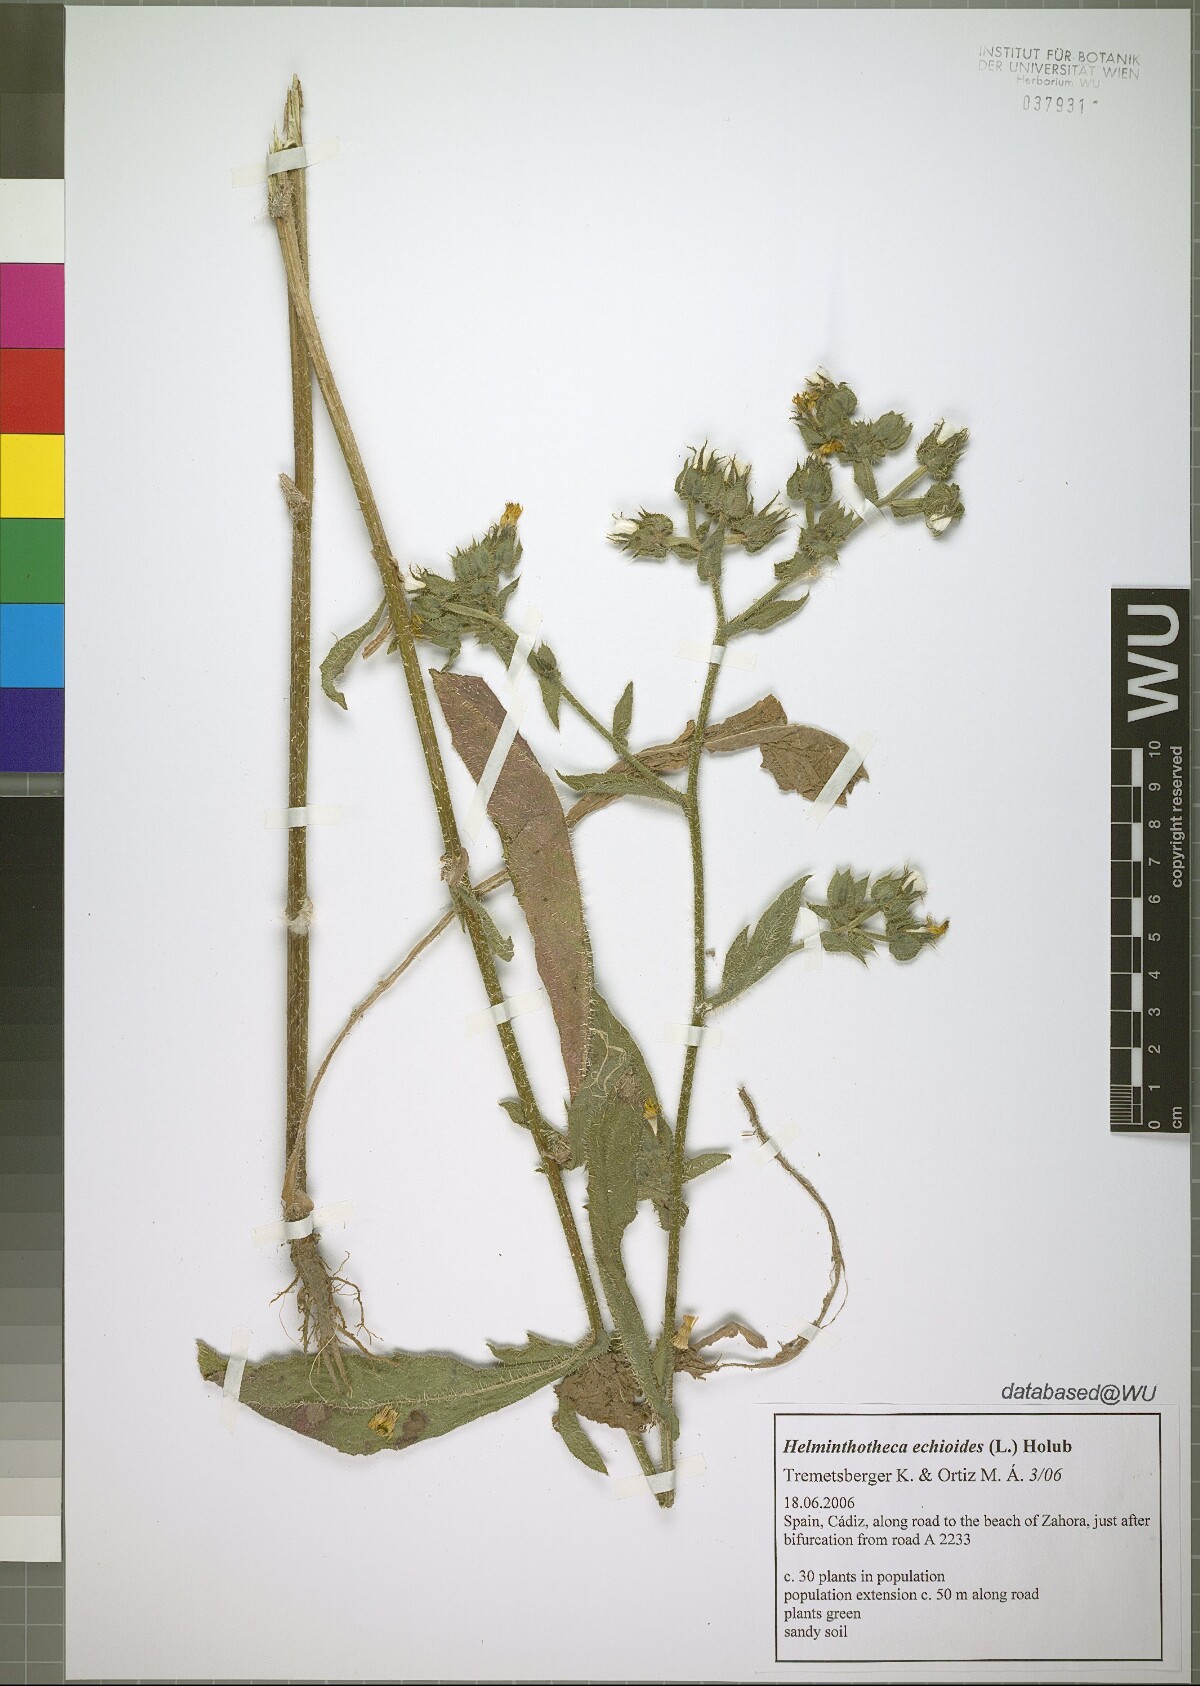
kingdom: Plantae
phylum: Tracheophyta
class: Magnoliopsida
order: Asterales
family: Asteraceae
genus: Helminthotheca
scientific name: Helminthotheca echioides
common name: Ox-tongue
